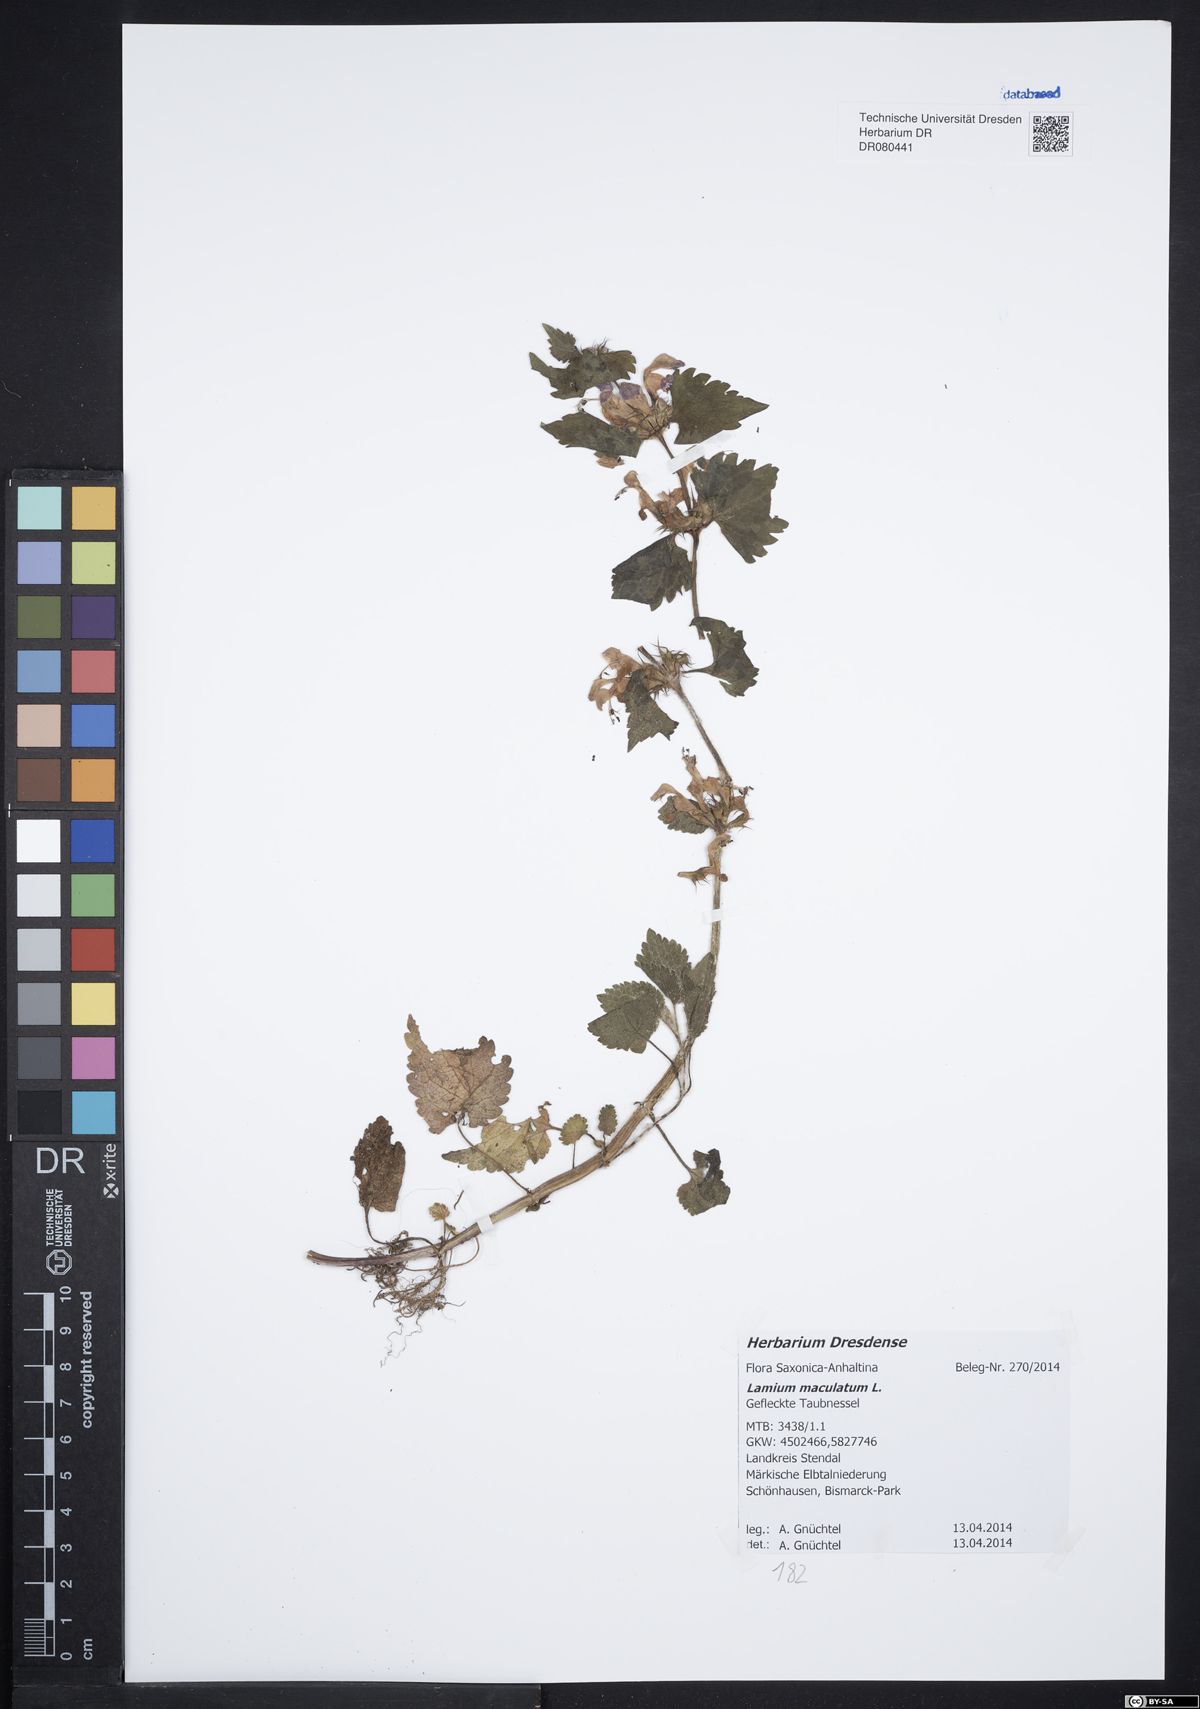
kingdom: Plantae
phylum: Tracheophyta
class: Magnoliopsida
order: Lamiales
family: Lamiaceae
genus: Lamium
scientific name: Lamium maculatum
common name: Spotted dead-nettle
